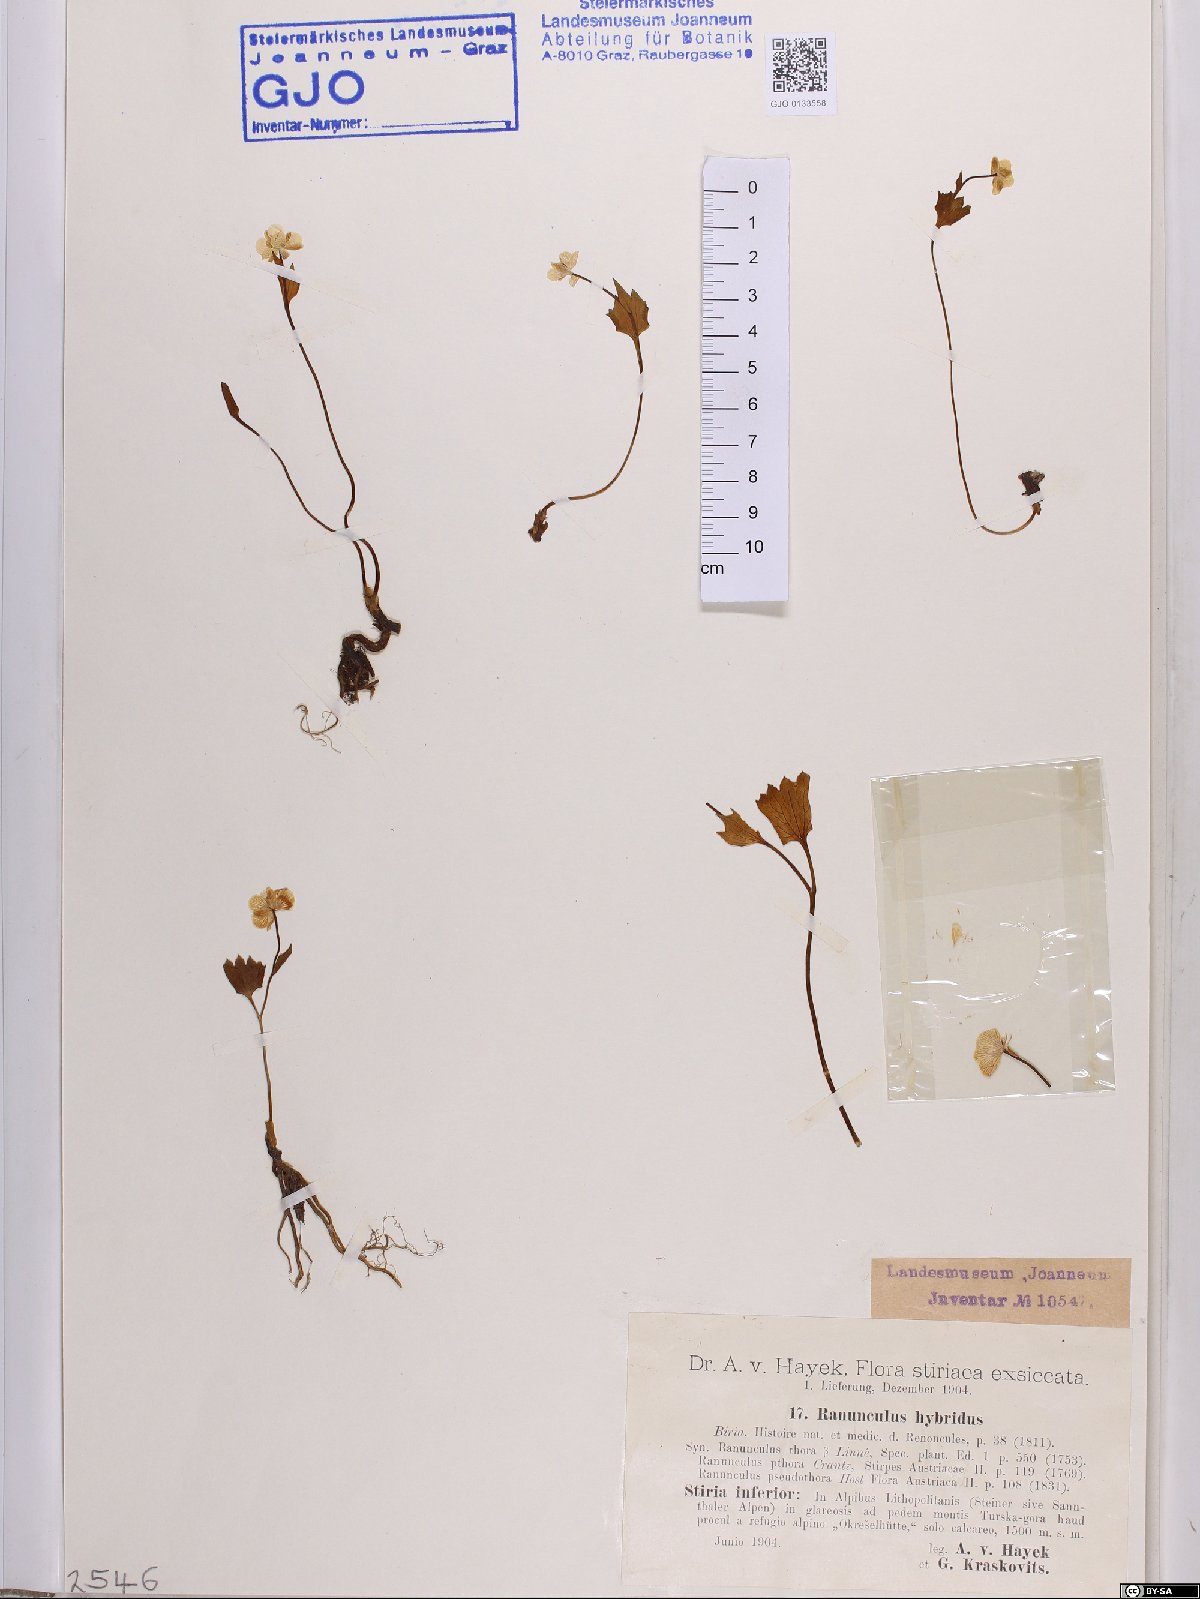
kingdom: Plantae
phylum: Tracheophyta
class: Magnoliopsida
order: Ranunculales
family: Ranunculaceae
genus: Ranunculus
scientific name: Ranunculus hybridus
